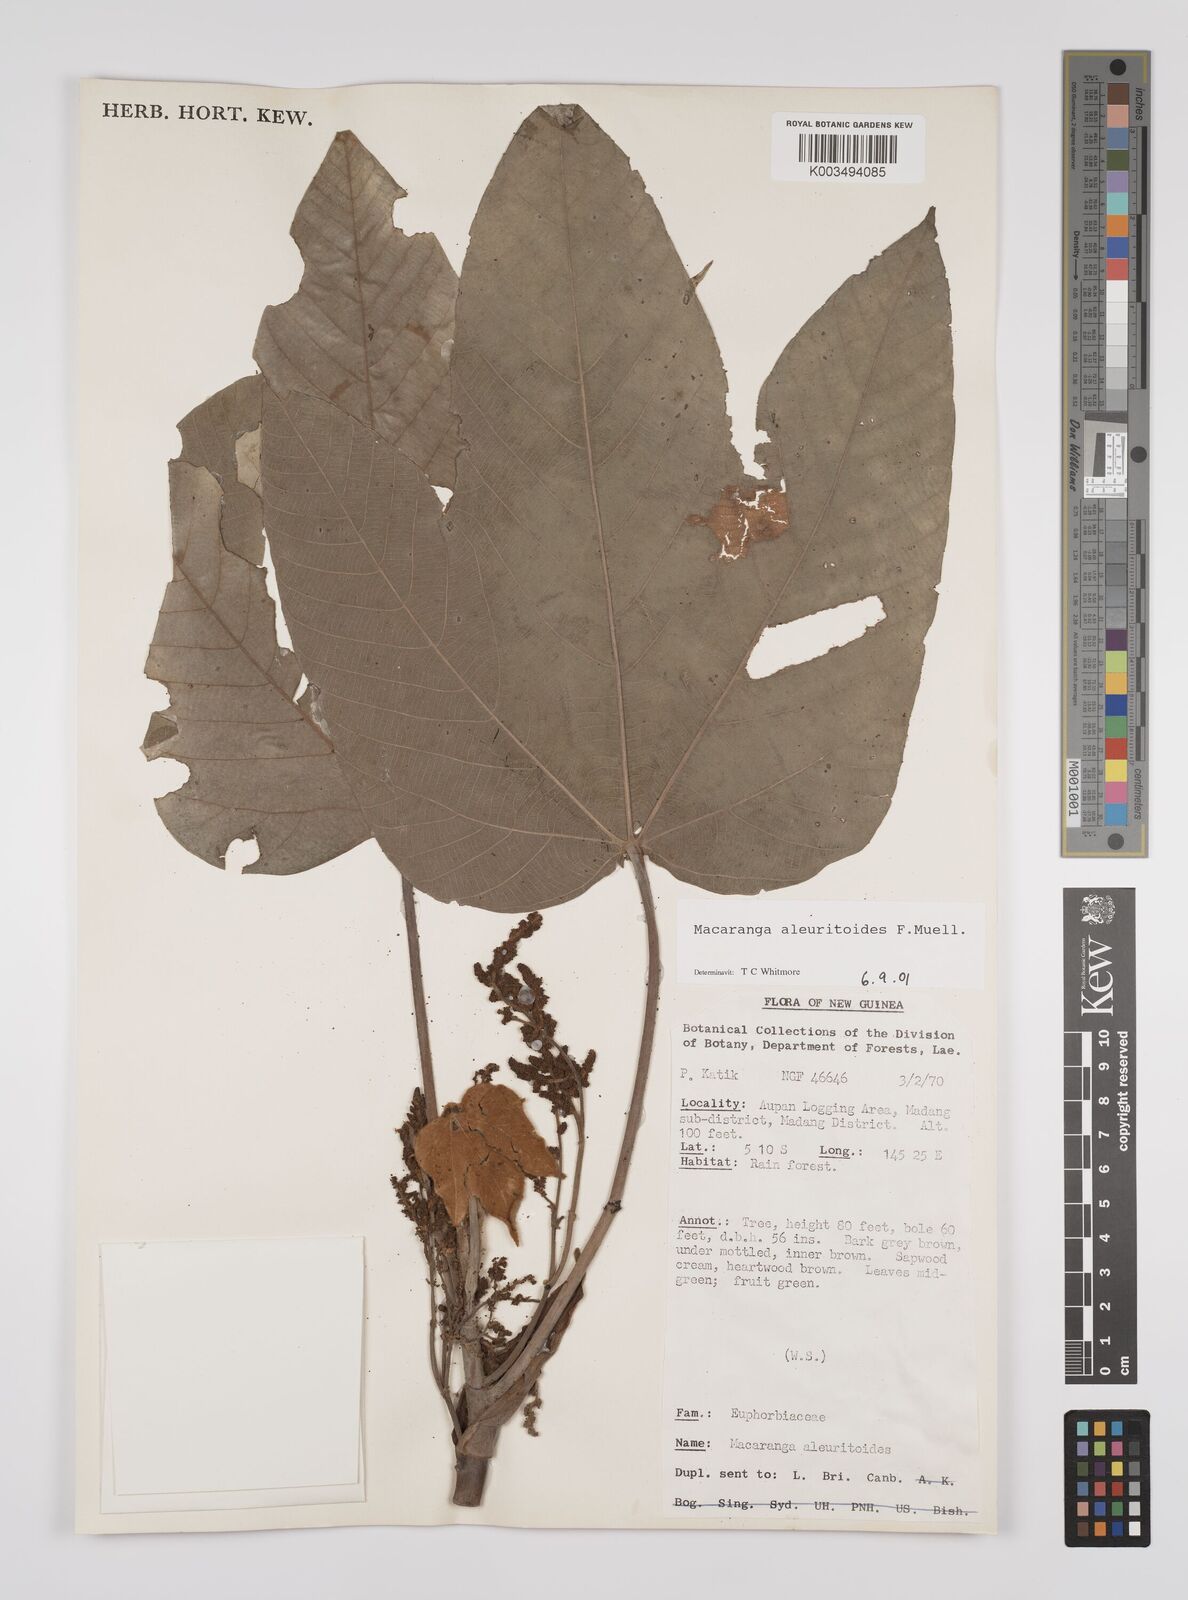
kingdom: Plantae
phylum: Tracheophyta
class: Magnoliopsida
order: Malpighiales
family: Euphorbiaceae
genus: Macaranga
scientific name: Macaranga aleuritoides
